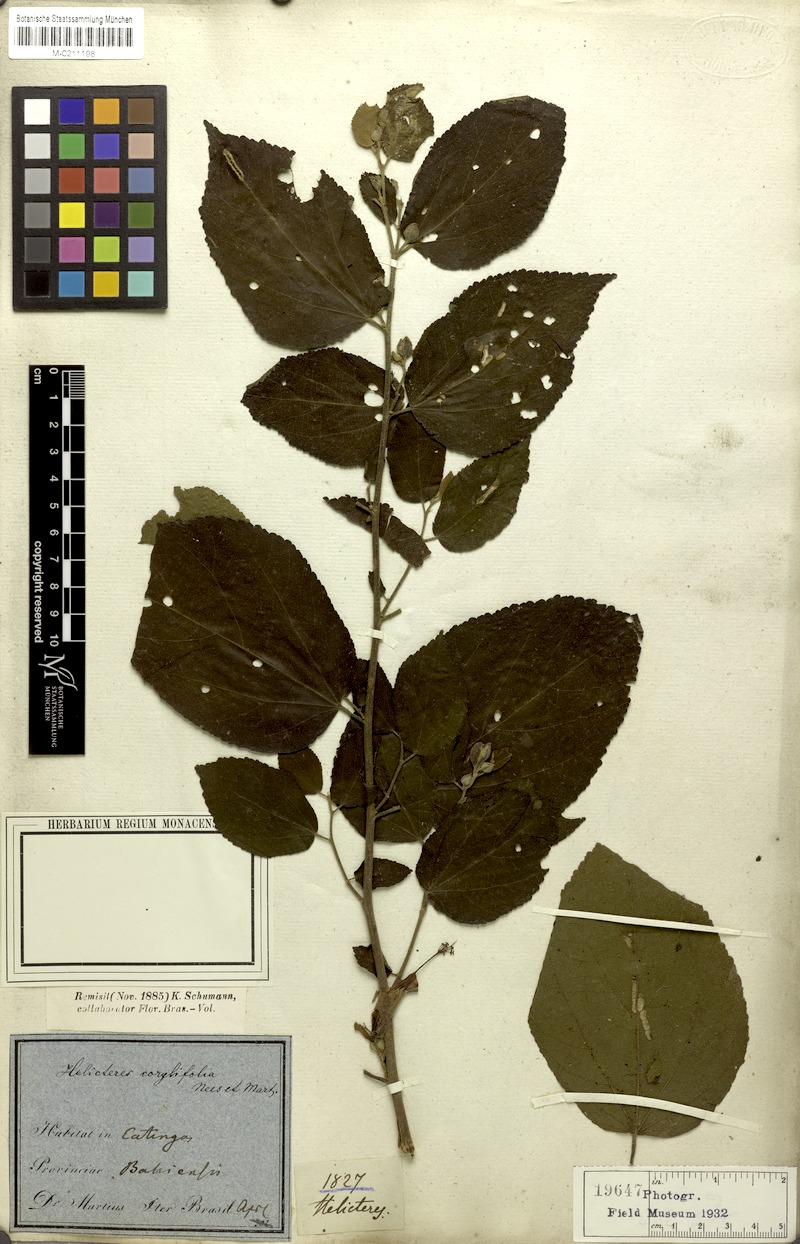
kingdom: Plantae
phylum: Tracheophyta
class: Magnoliopsida
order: Malvales
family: Malvaceae
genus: Helicteres
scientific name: Helicteres corylifolia
